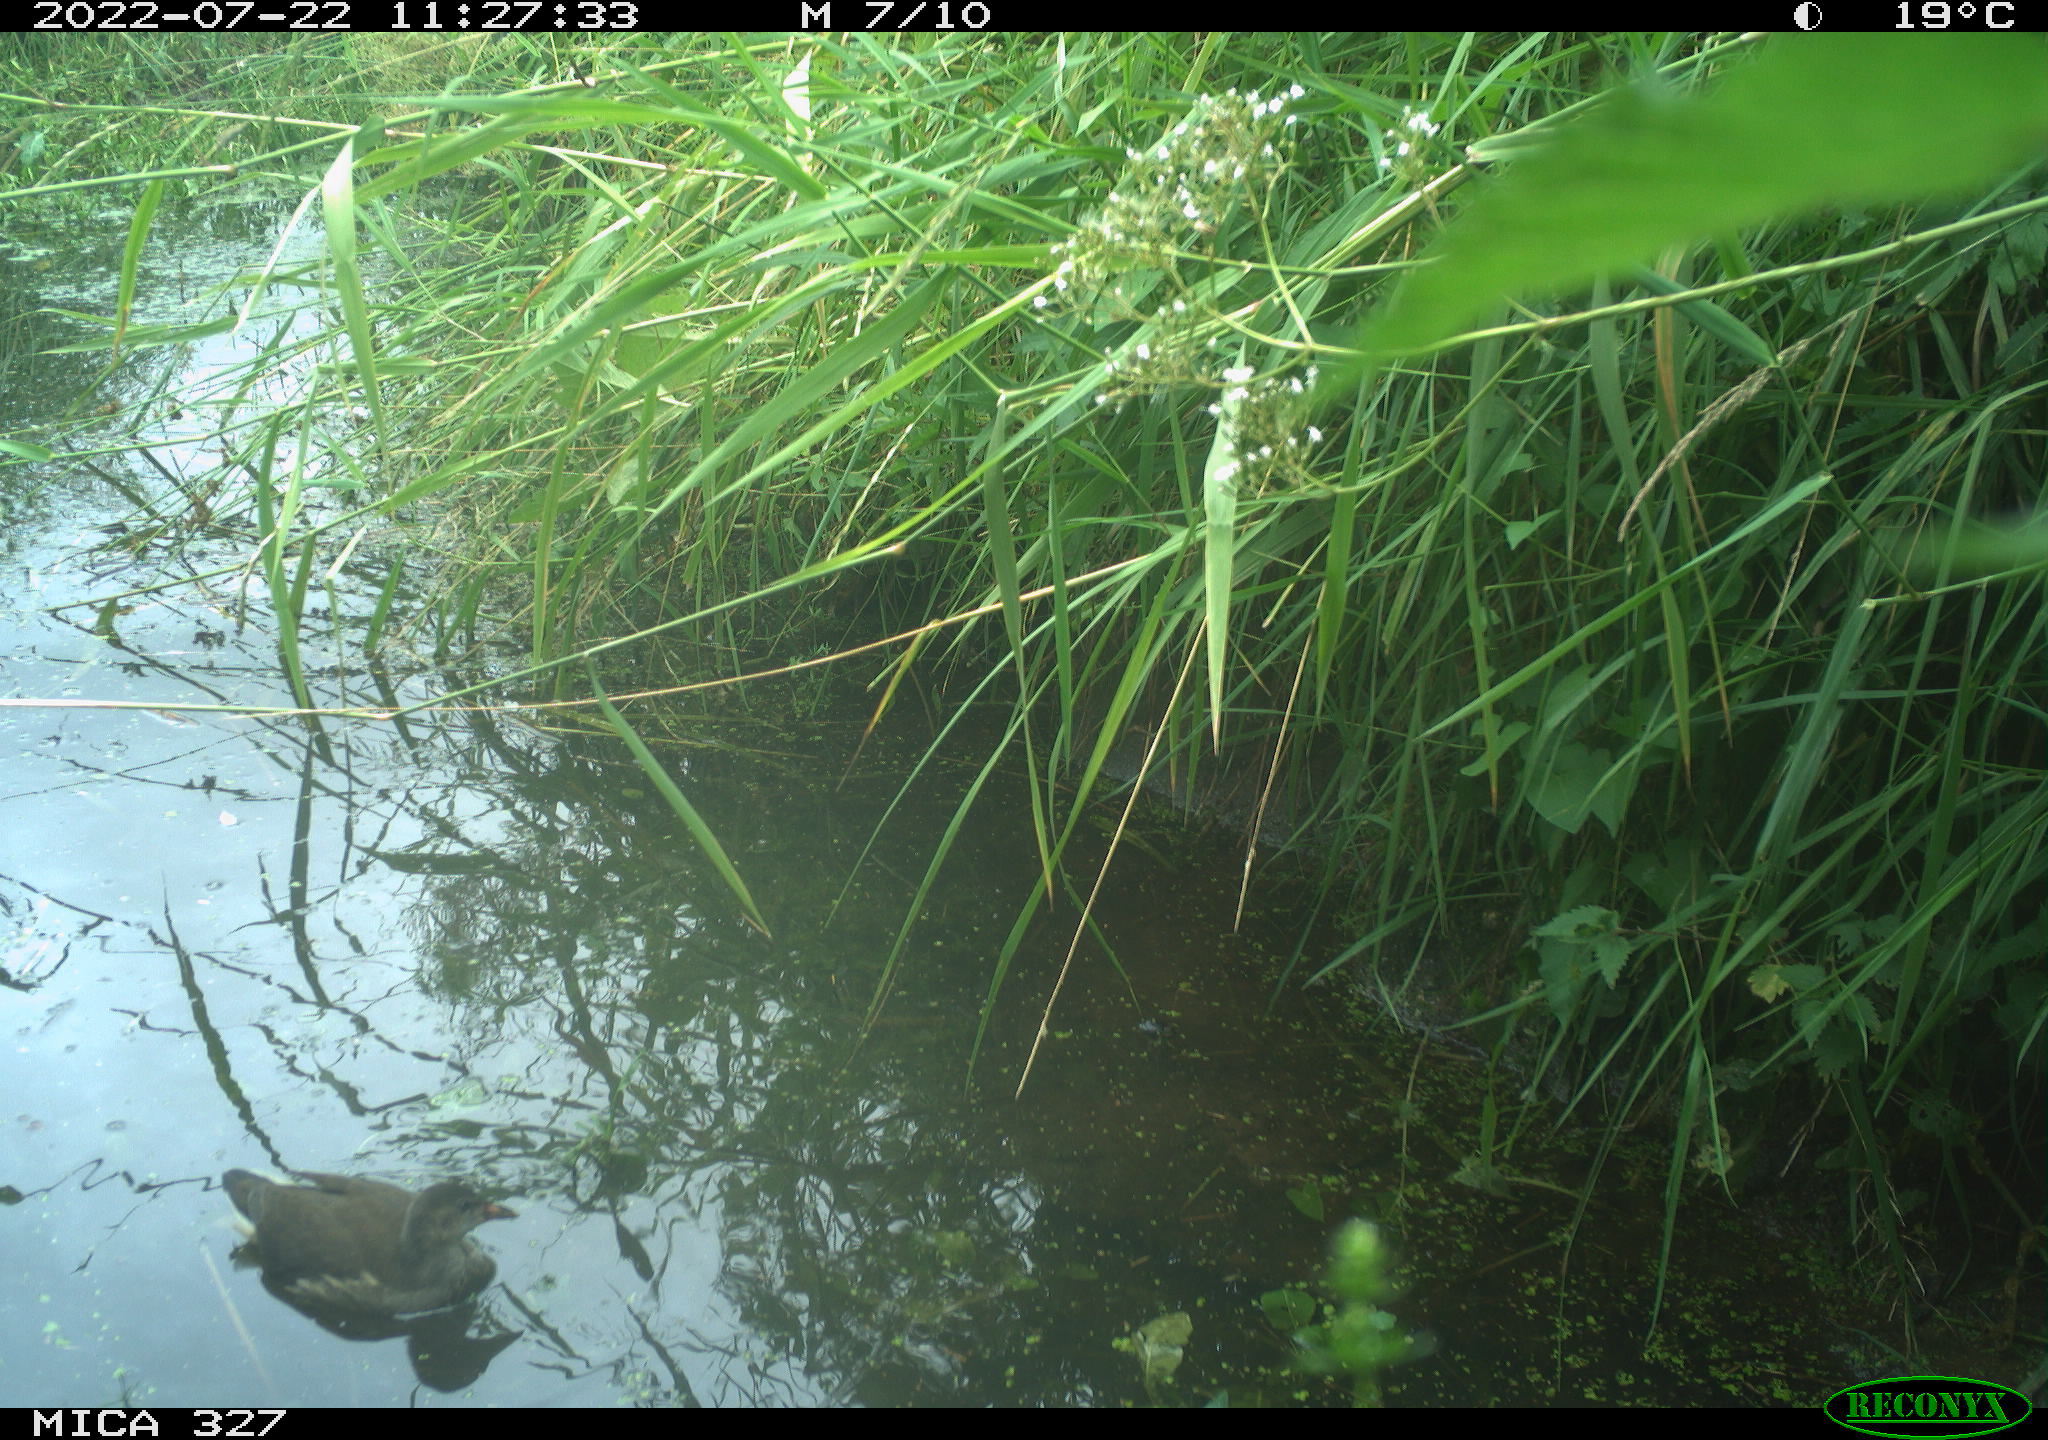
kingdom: Animalia
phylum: Chordata
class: Aves
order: Gruiformes
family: Rallidae
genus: Gallinula
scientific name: Gallinula chloropus
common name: Common moorhen
